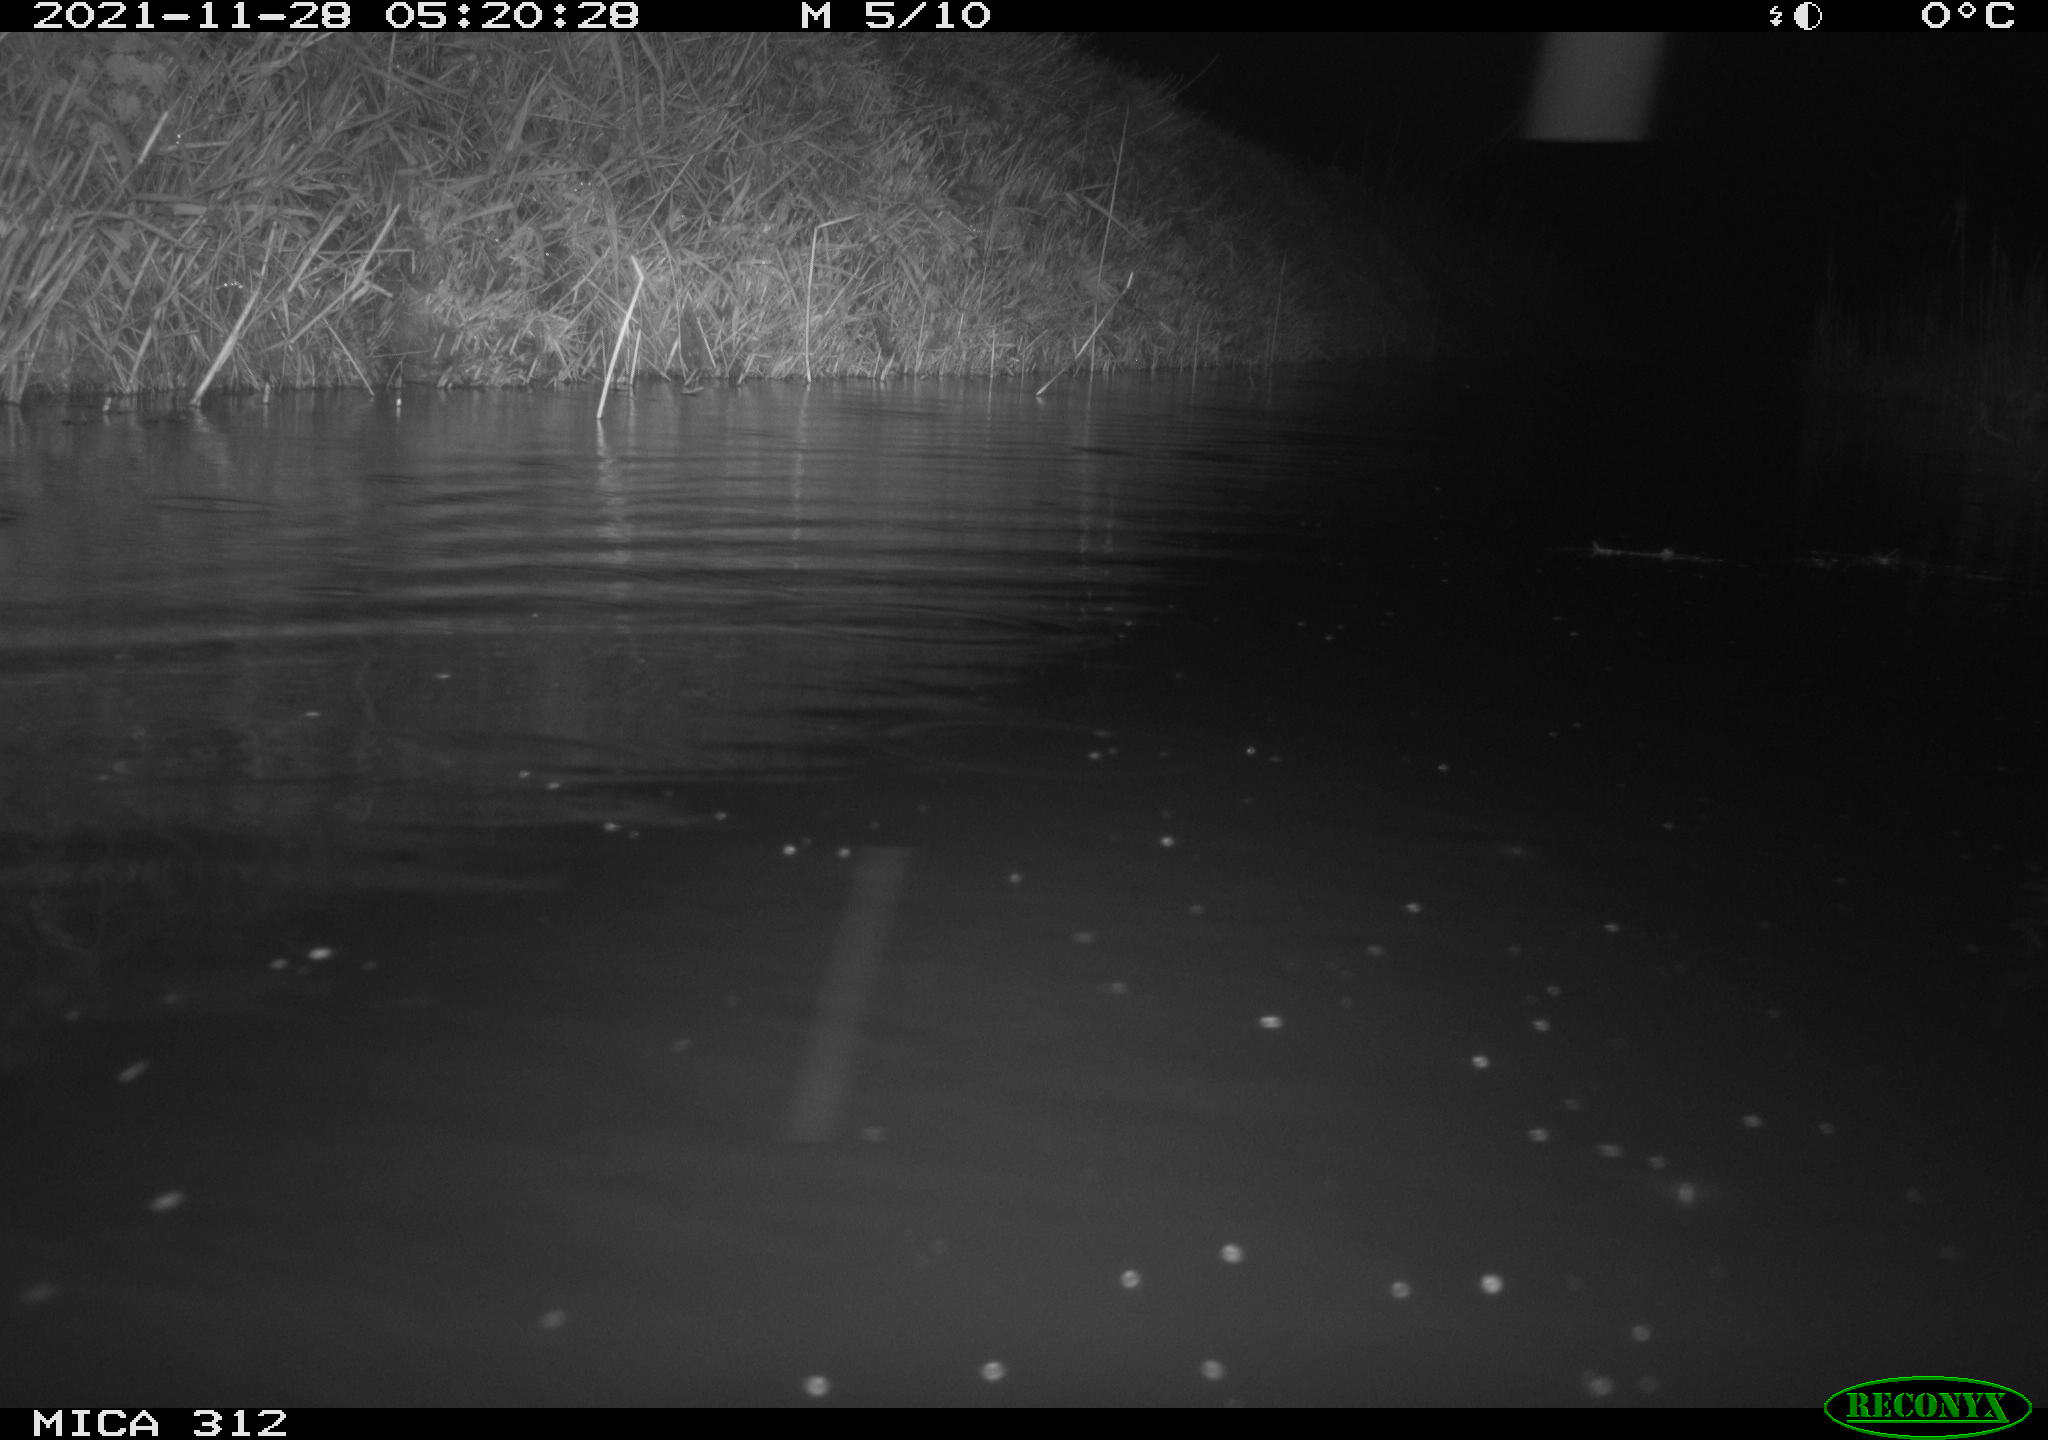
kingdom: Animalia
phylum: Chordata
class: Mammalia
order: Rodentia
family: Muridae
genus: Rattus
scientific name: Rattus norvegicus
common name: Brown rat
